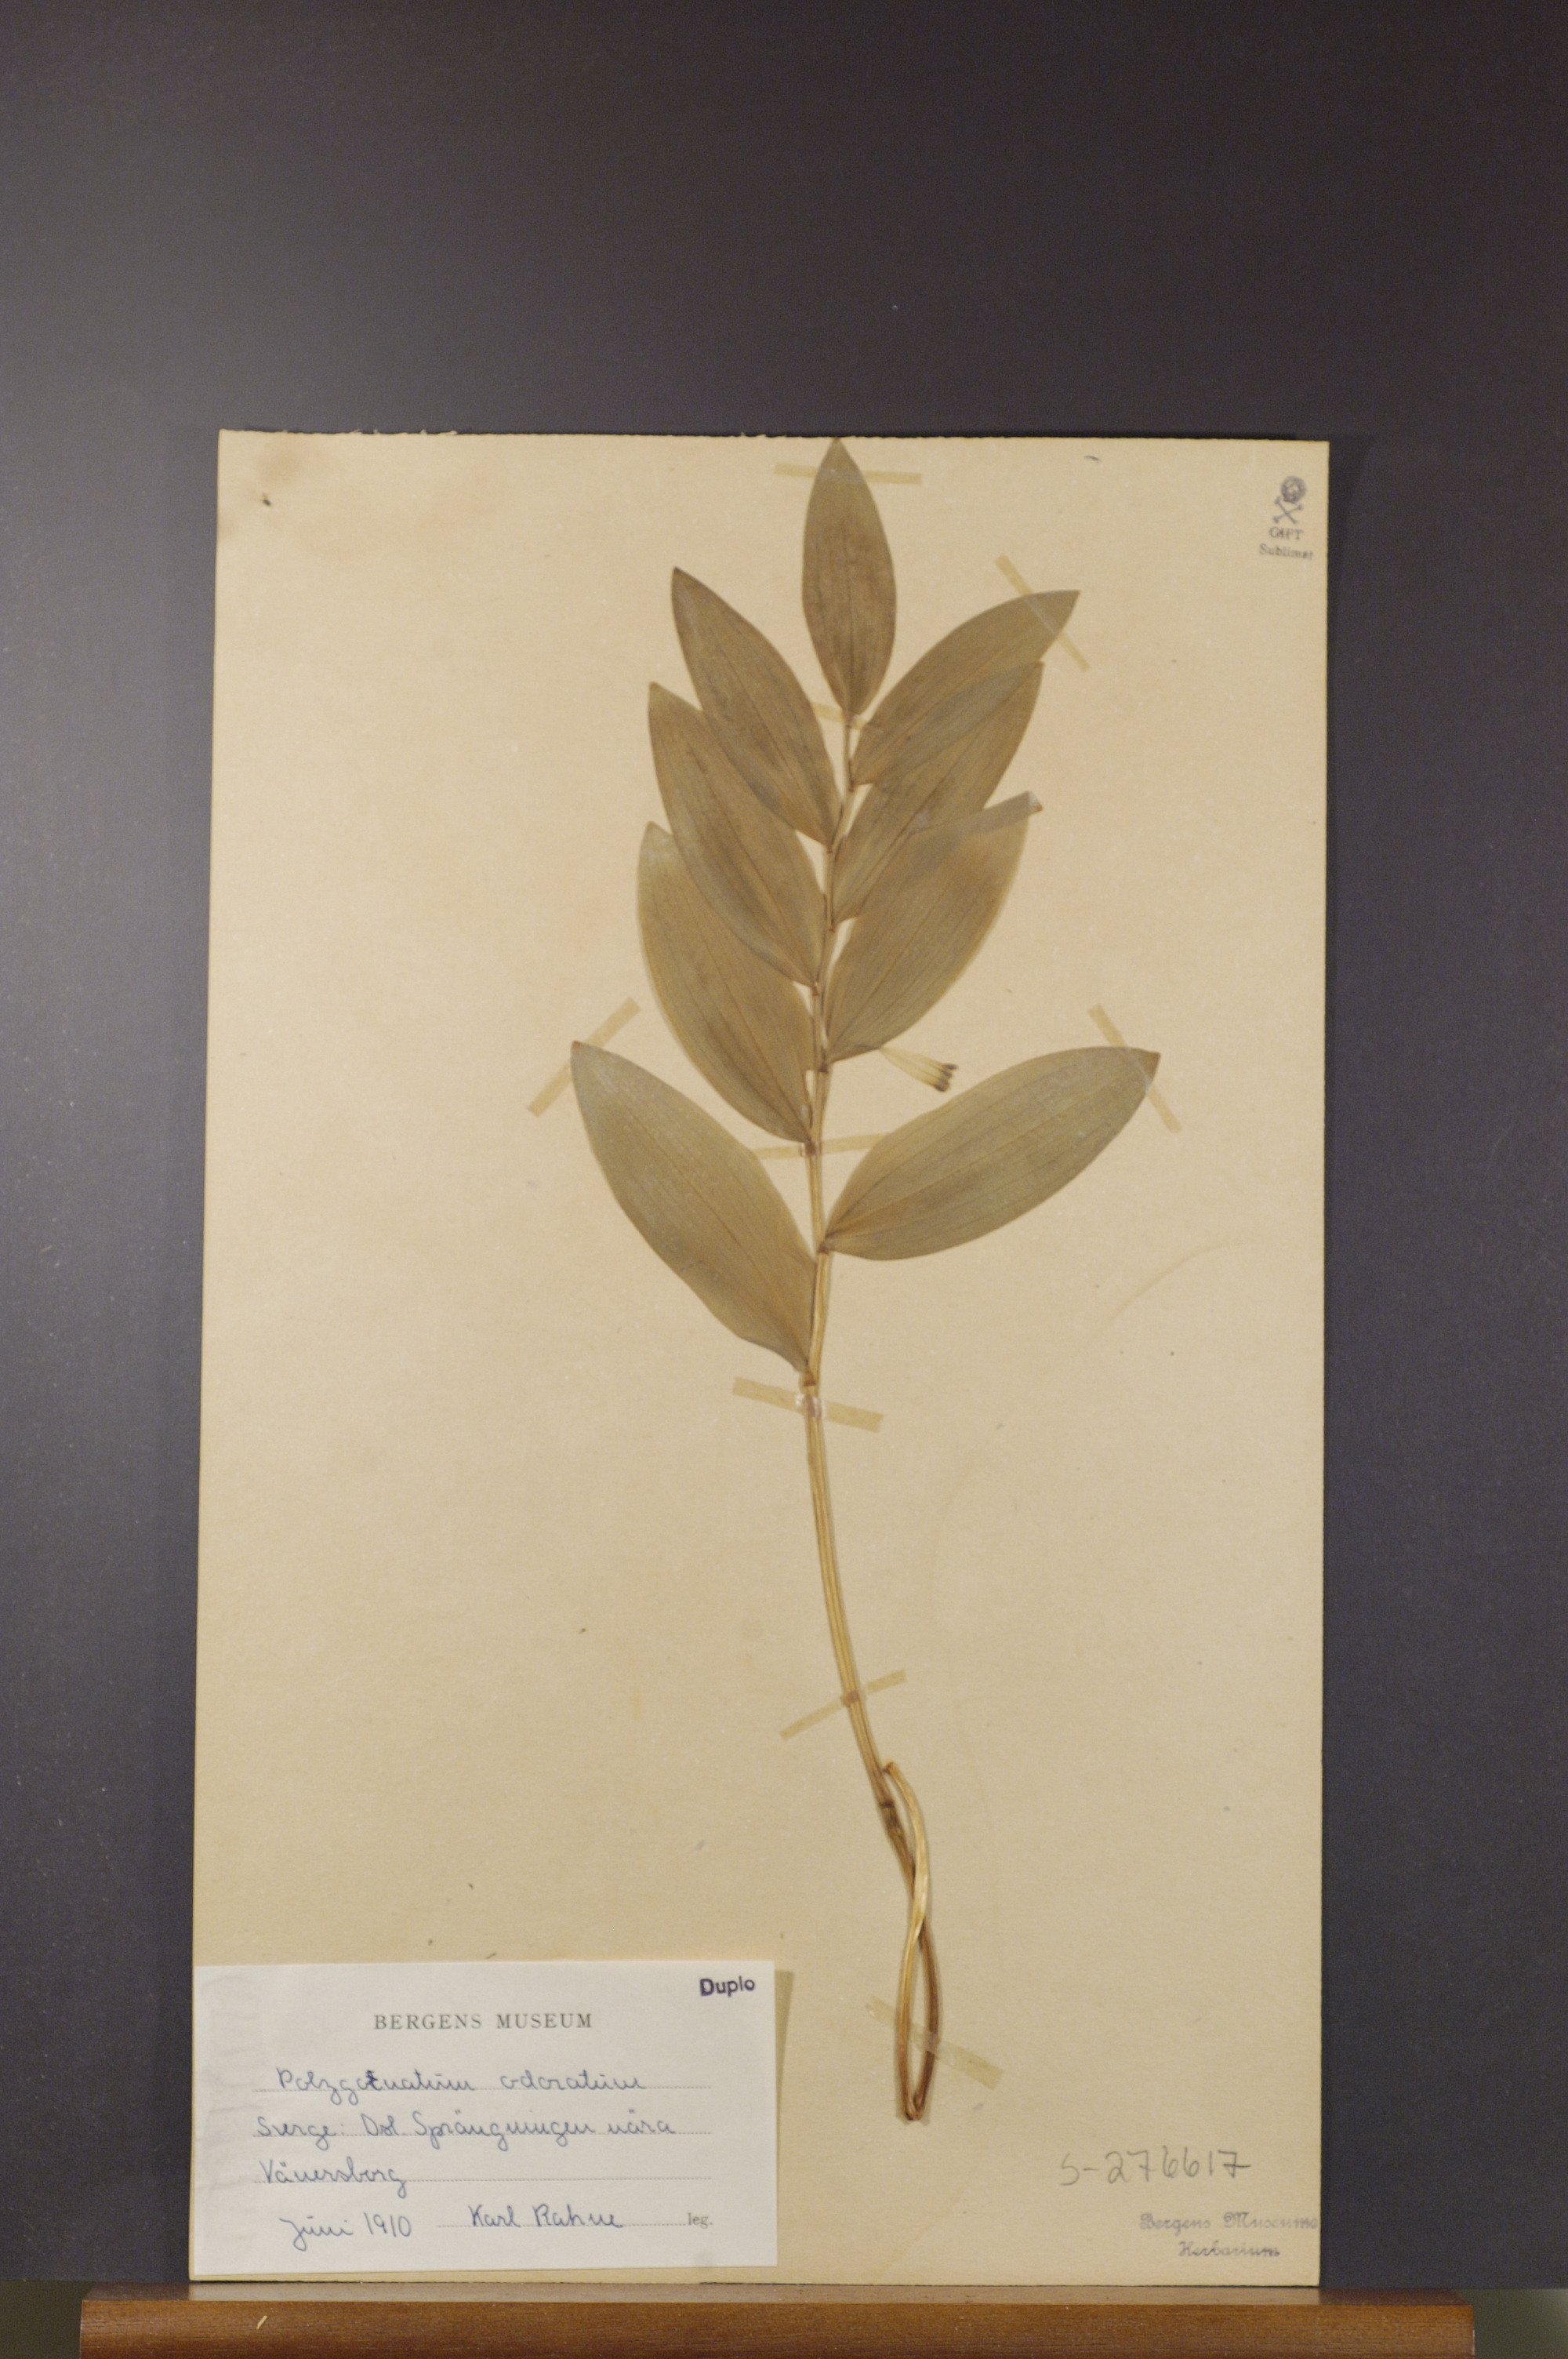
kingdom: Plantae
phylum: Tracheophyta
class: Liliopsida
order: Asparagales
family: Asparagaceae
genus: Polygonatum
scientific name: Polygonatum odoratum
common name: Angular solomon's-seal
